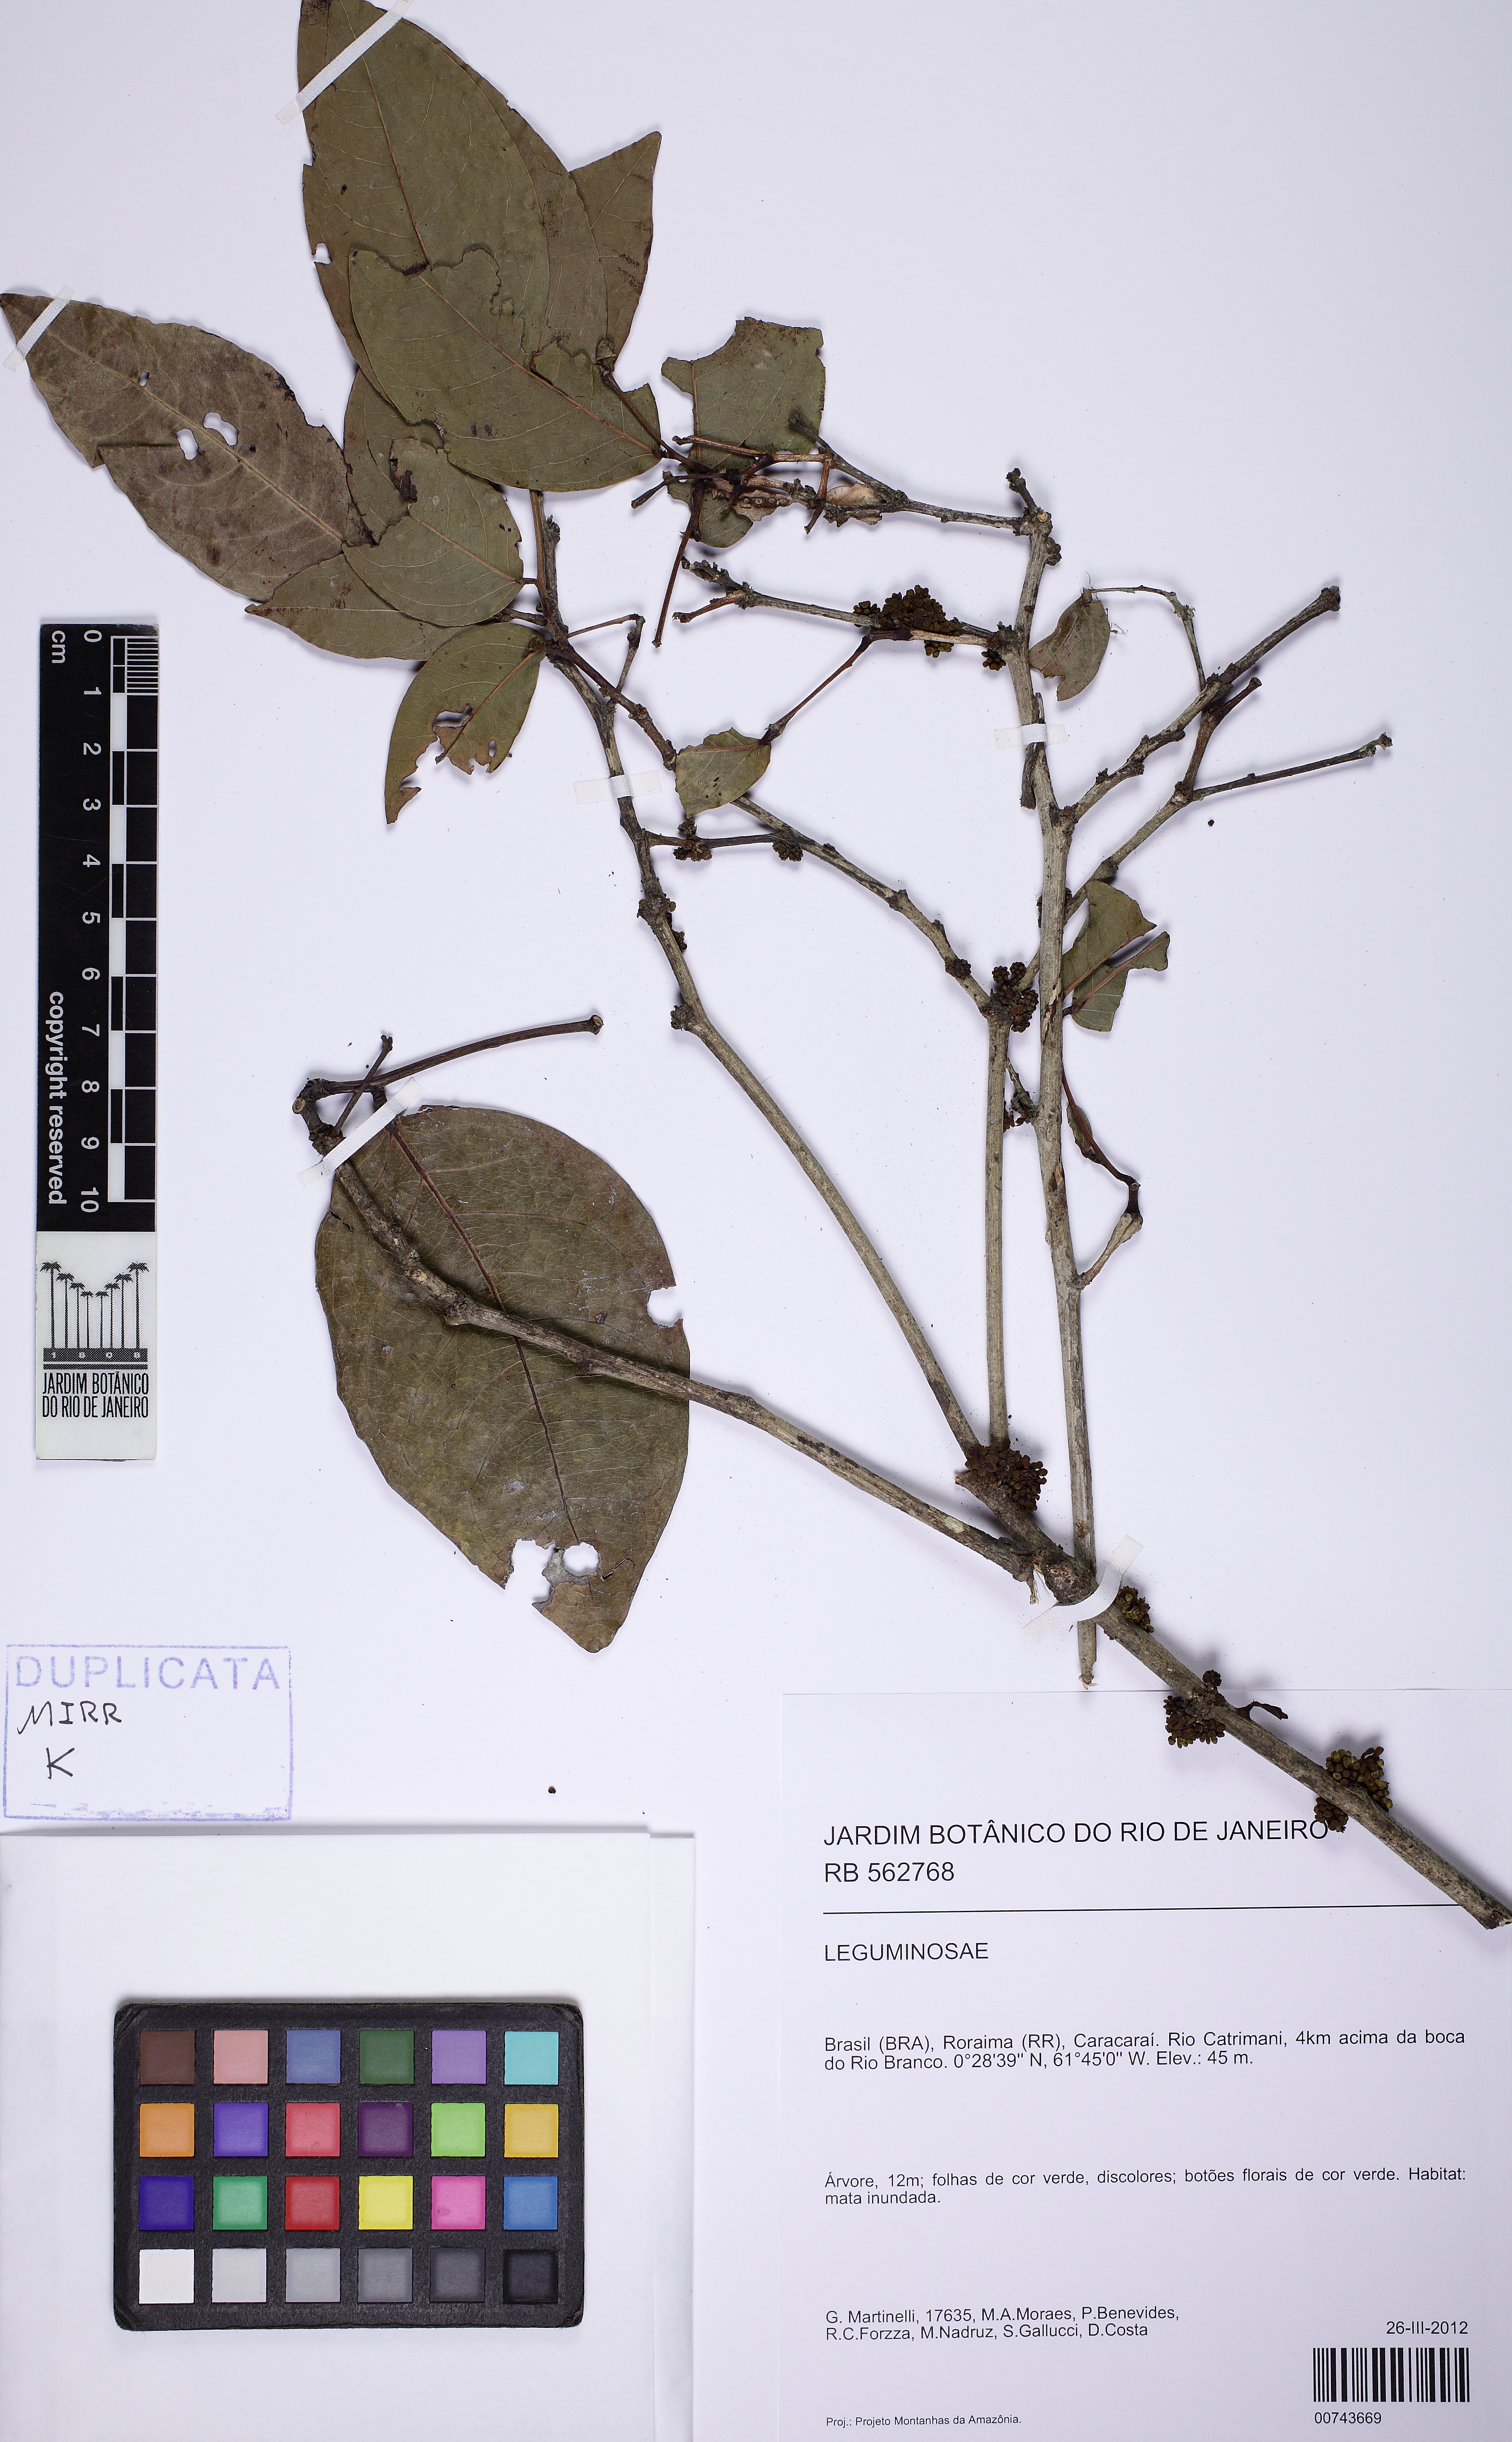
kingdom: Plantae
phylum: Tracheophyta
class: Magnoliopsida
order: Fabales
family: Fabaceae
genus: Zygia
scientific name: Zygia latifolia
